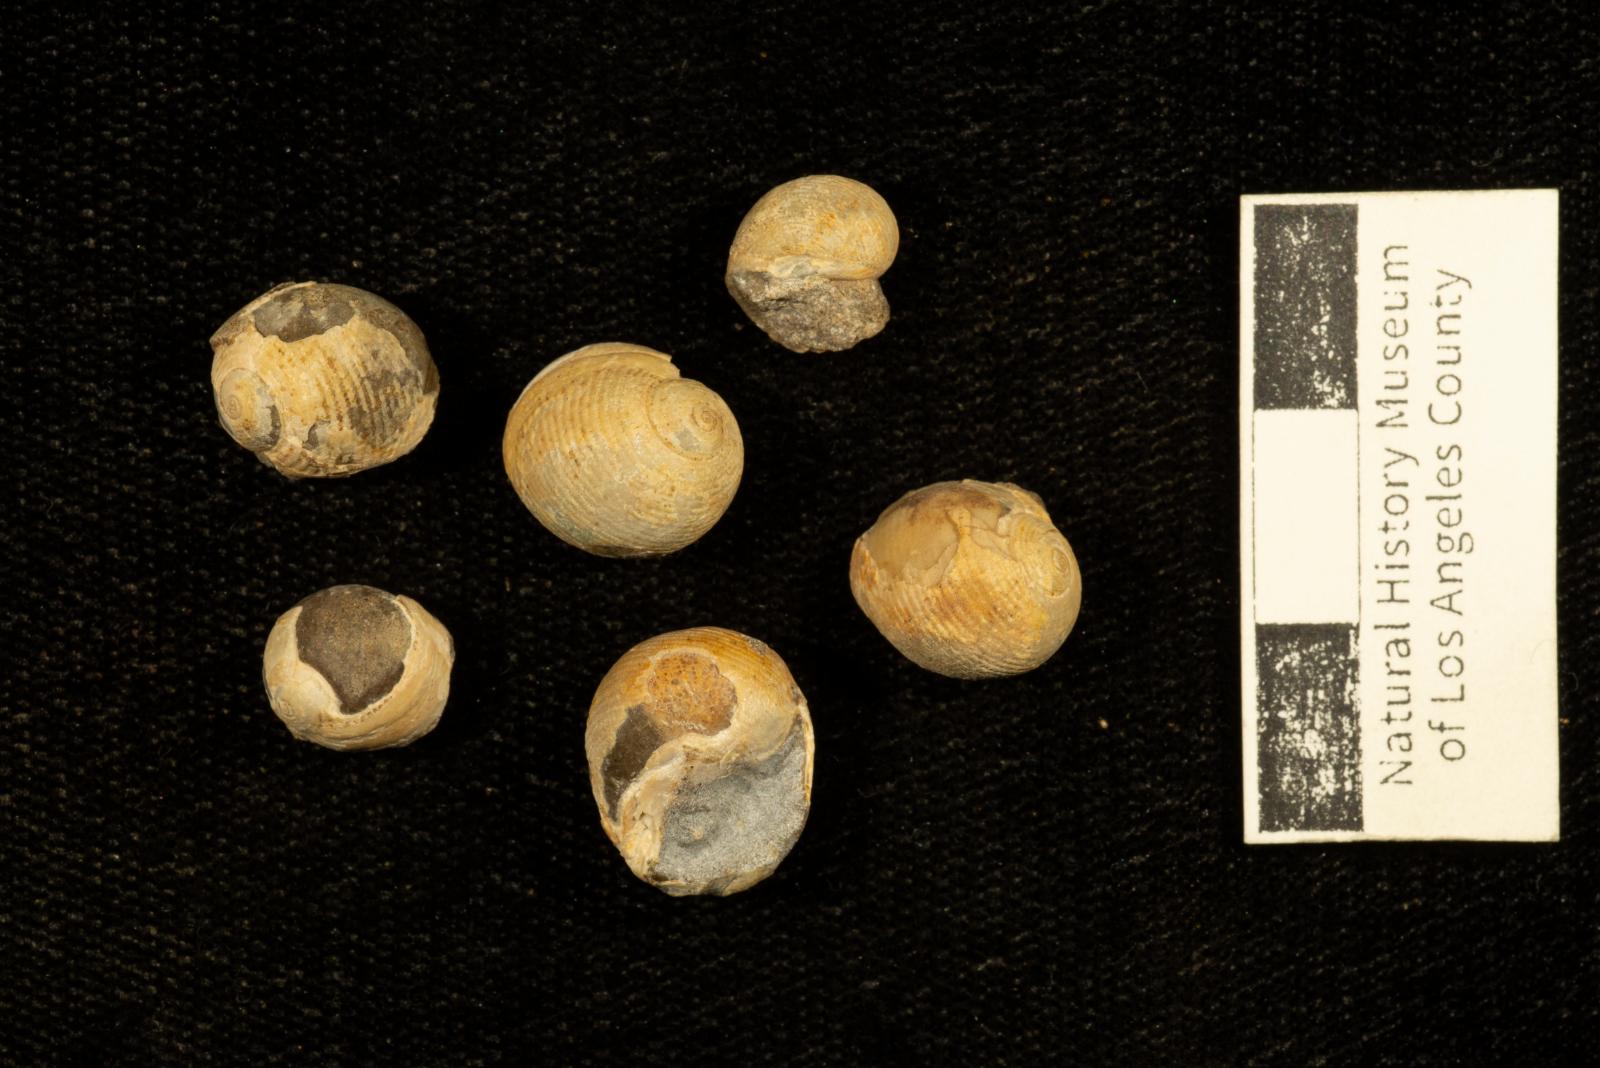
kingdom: Animalia
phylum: Mollusca
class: Gastropoda
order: Cephalaspidea
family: Ringiculidae
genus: Biplica
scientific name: Biplica obliqua
